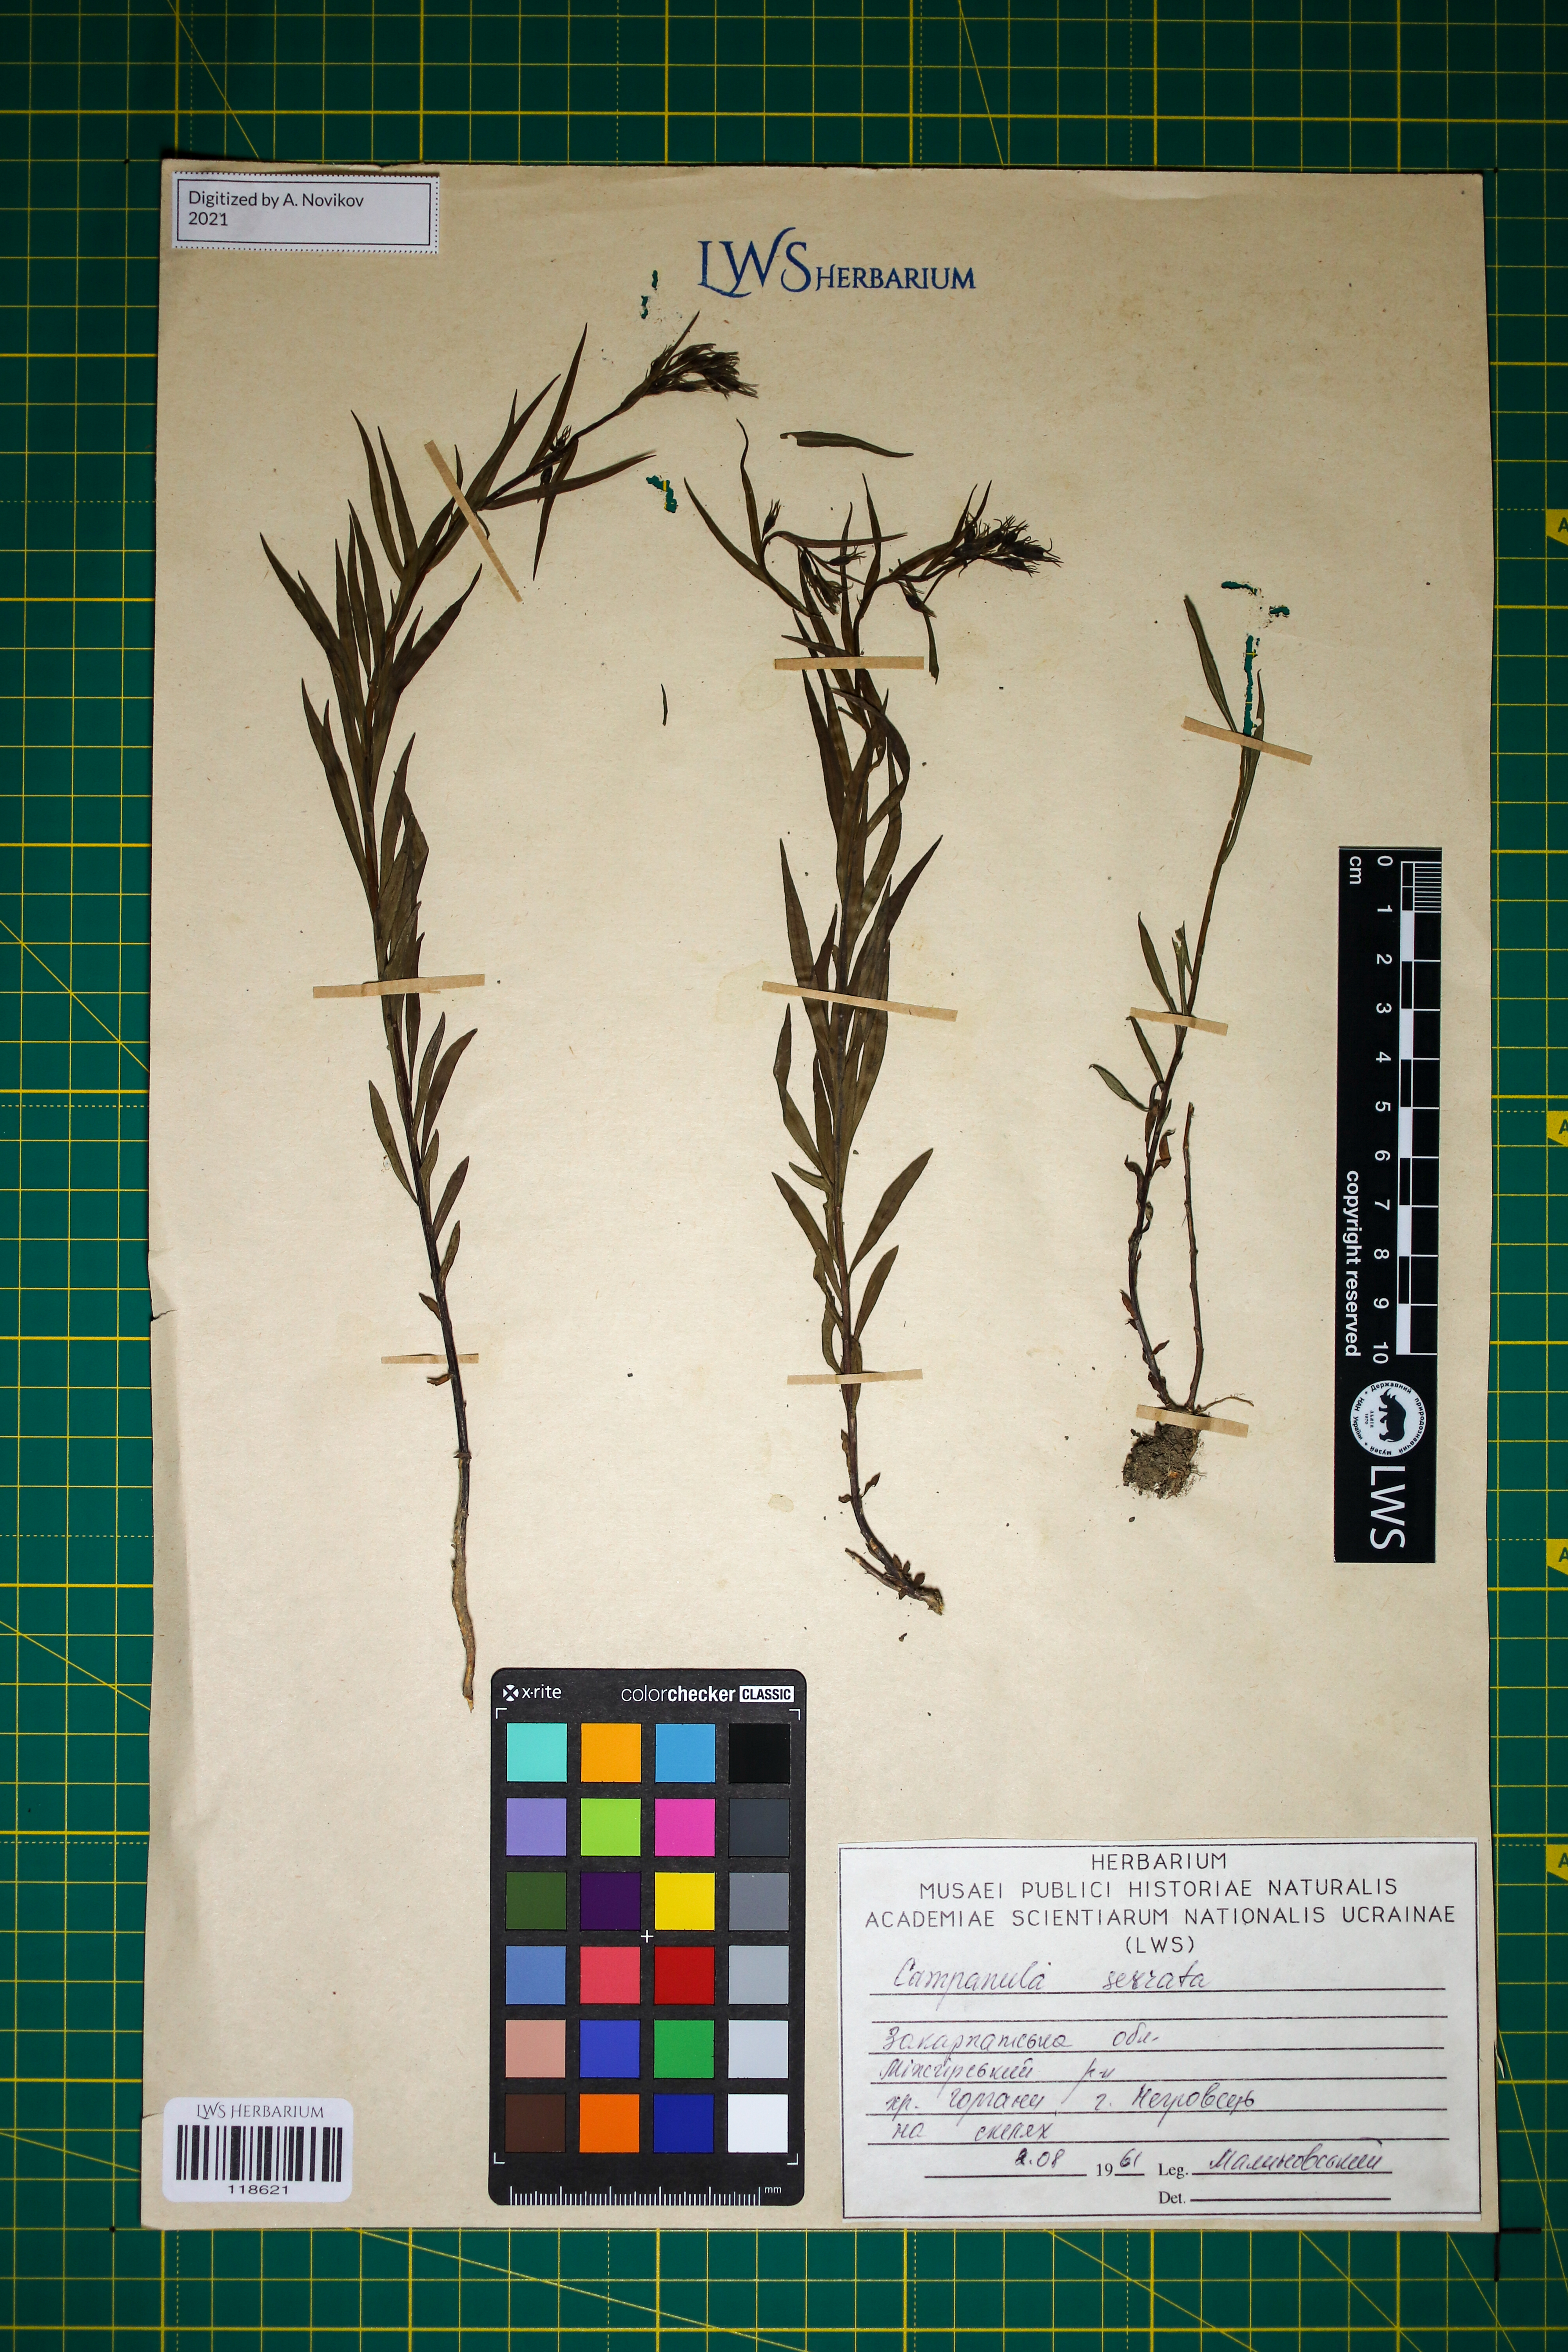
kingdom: Plantae
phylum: Tracheophyta
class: Magnoliopsida
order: Asterales
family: Campanulaceae
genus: Campanula
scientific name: Campanula serrata
